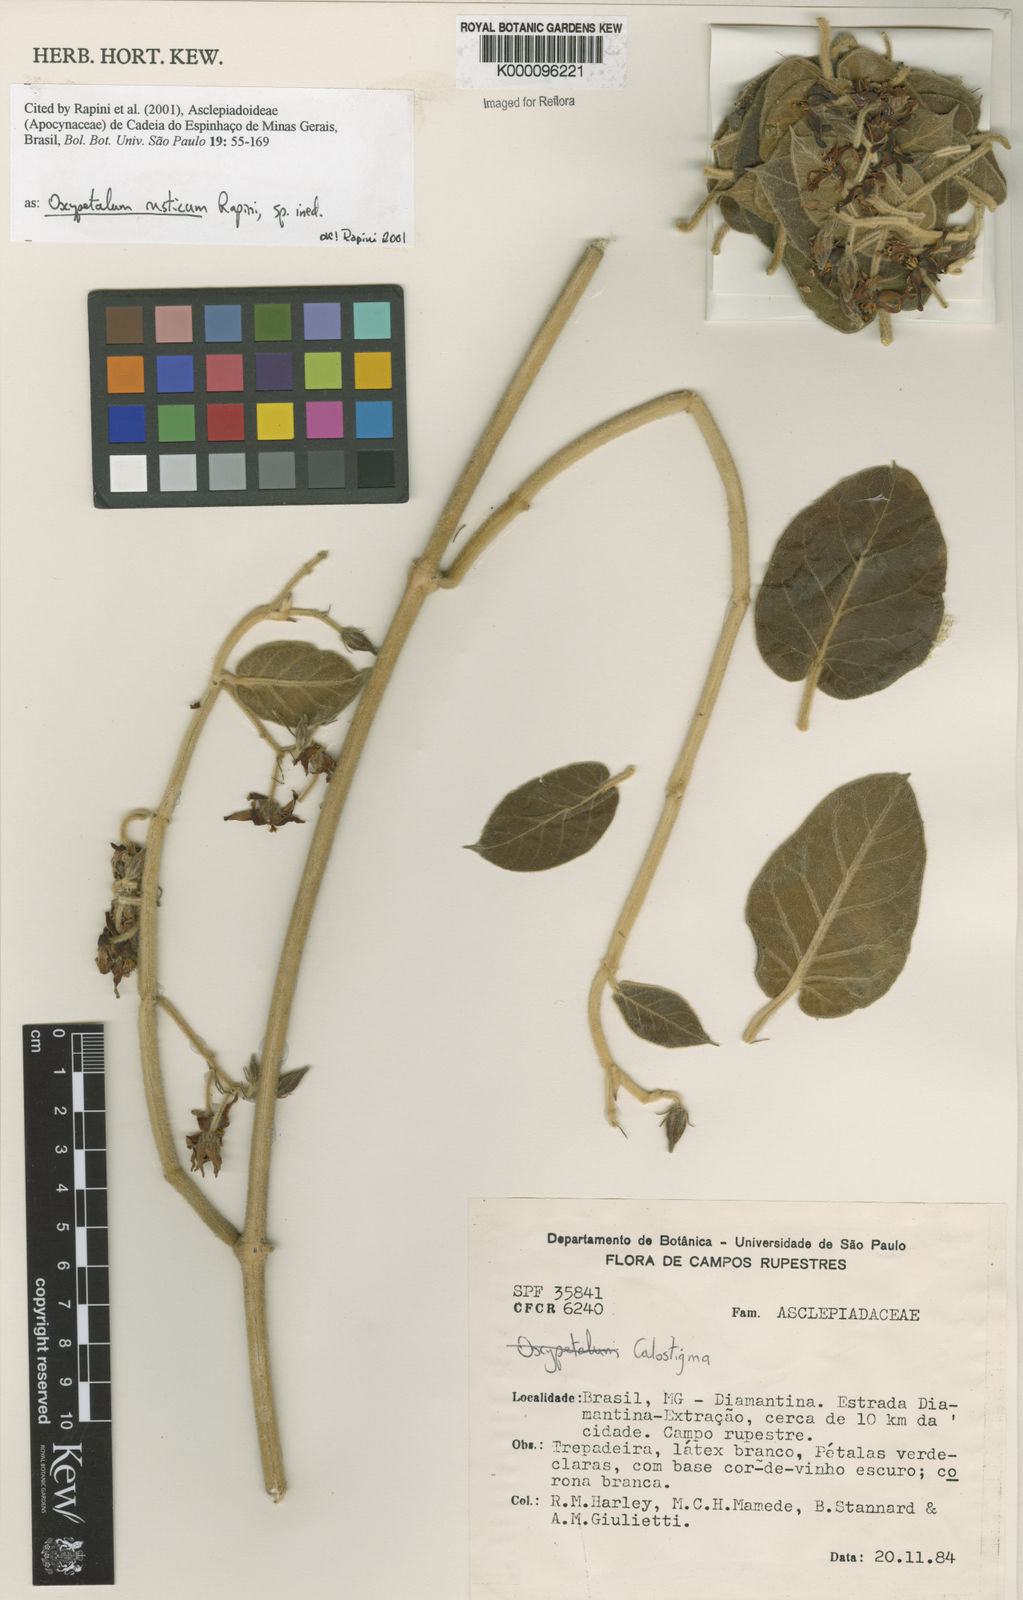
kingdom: Plantae
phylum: Tracheophyta
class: Magnoliopsida
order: Gentianales
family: Apocynaceae
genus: Oxypetalum
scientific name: Oxypetalum rusticum
